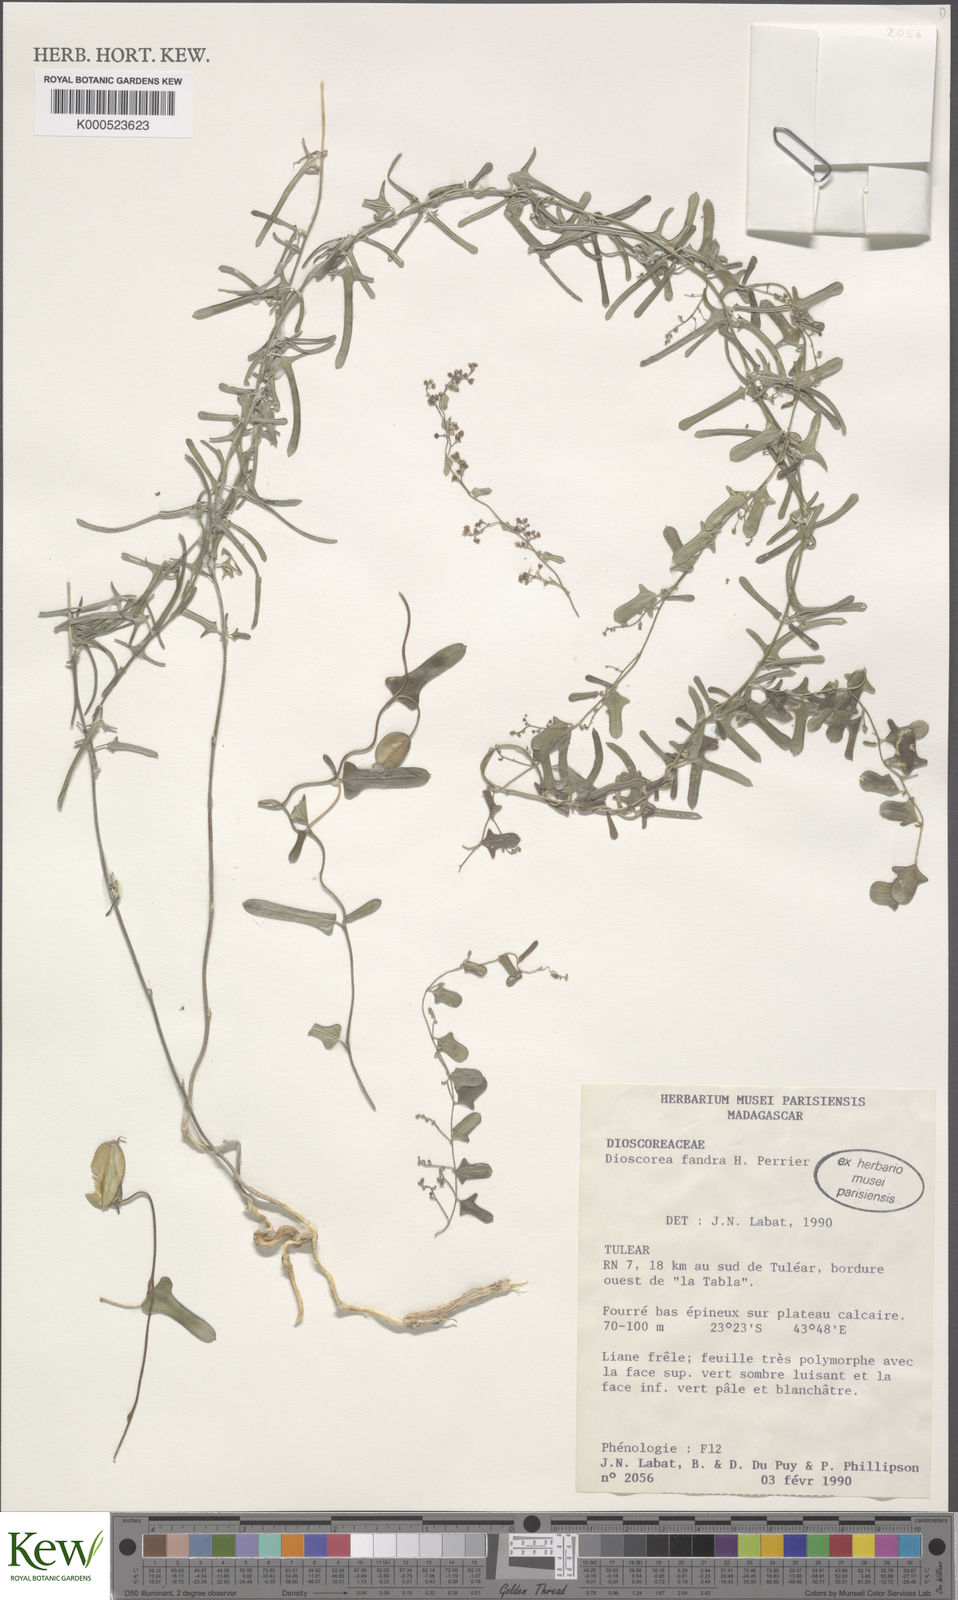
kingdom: Plantae
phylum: Tracheophyta
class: Liliopsida
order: Dioscoreales
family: Dioscoreaceae
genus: Dioscorea
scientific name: Dioscorea fandra
